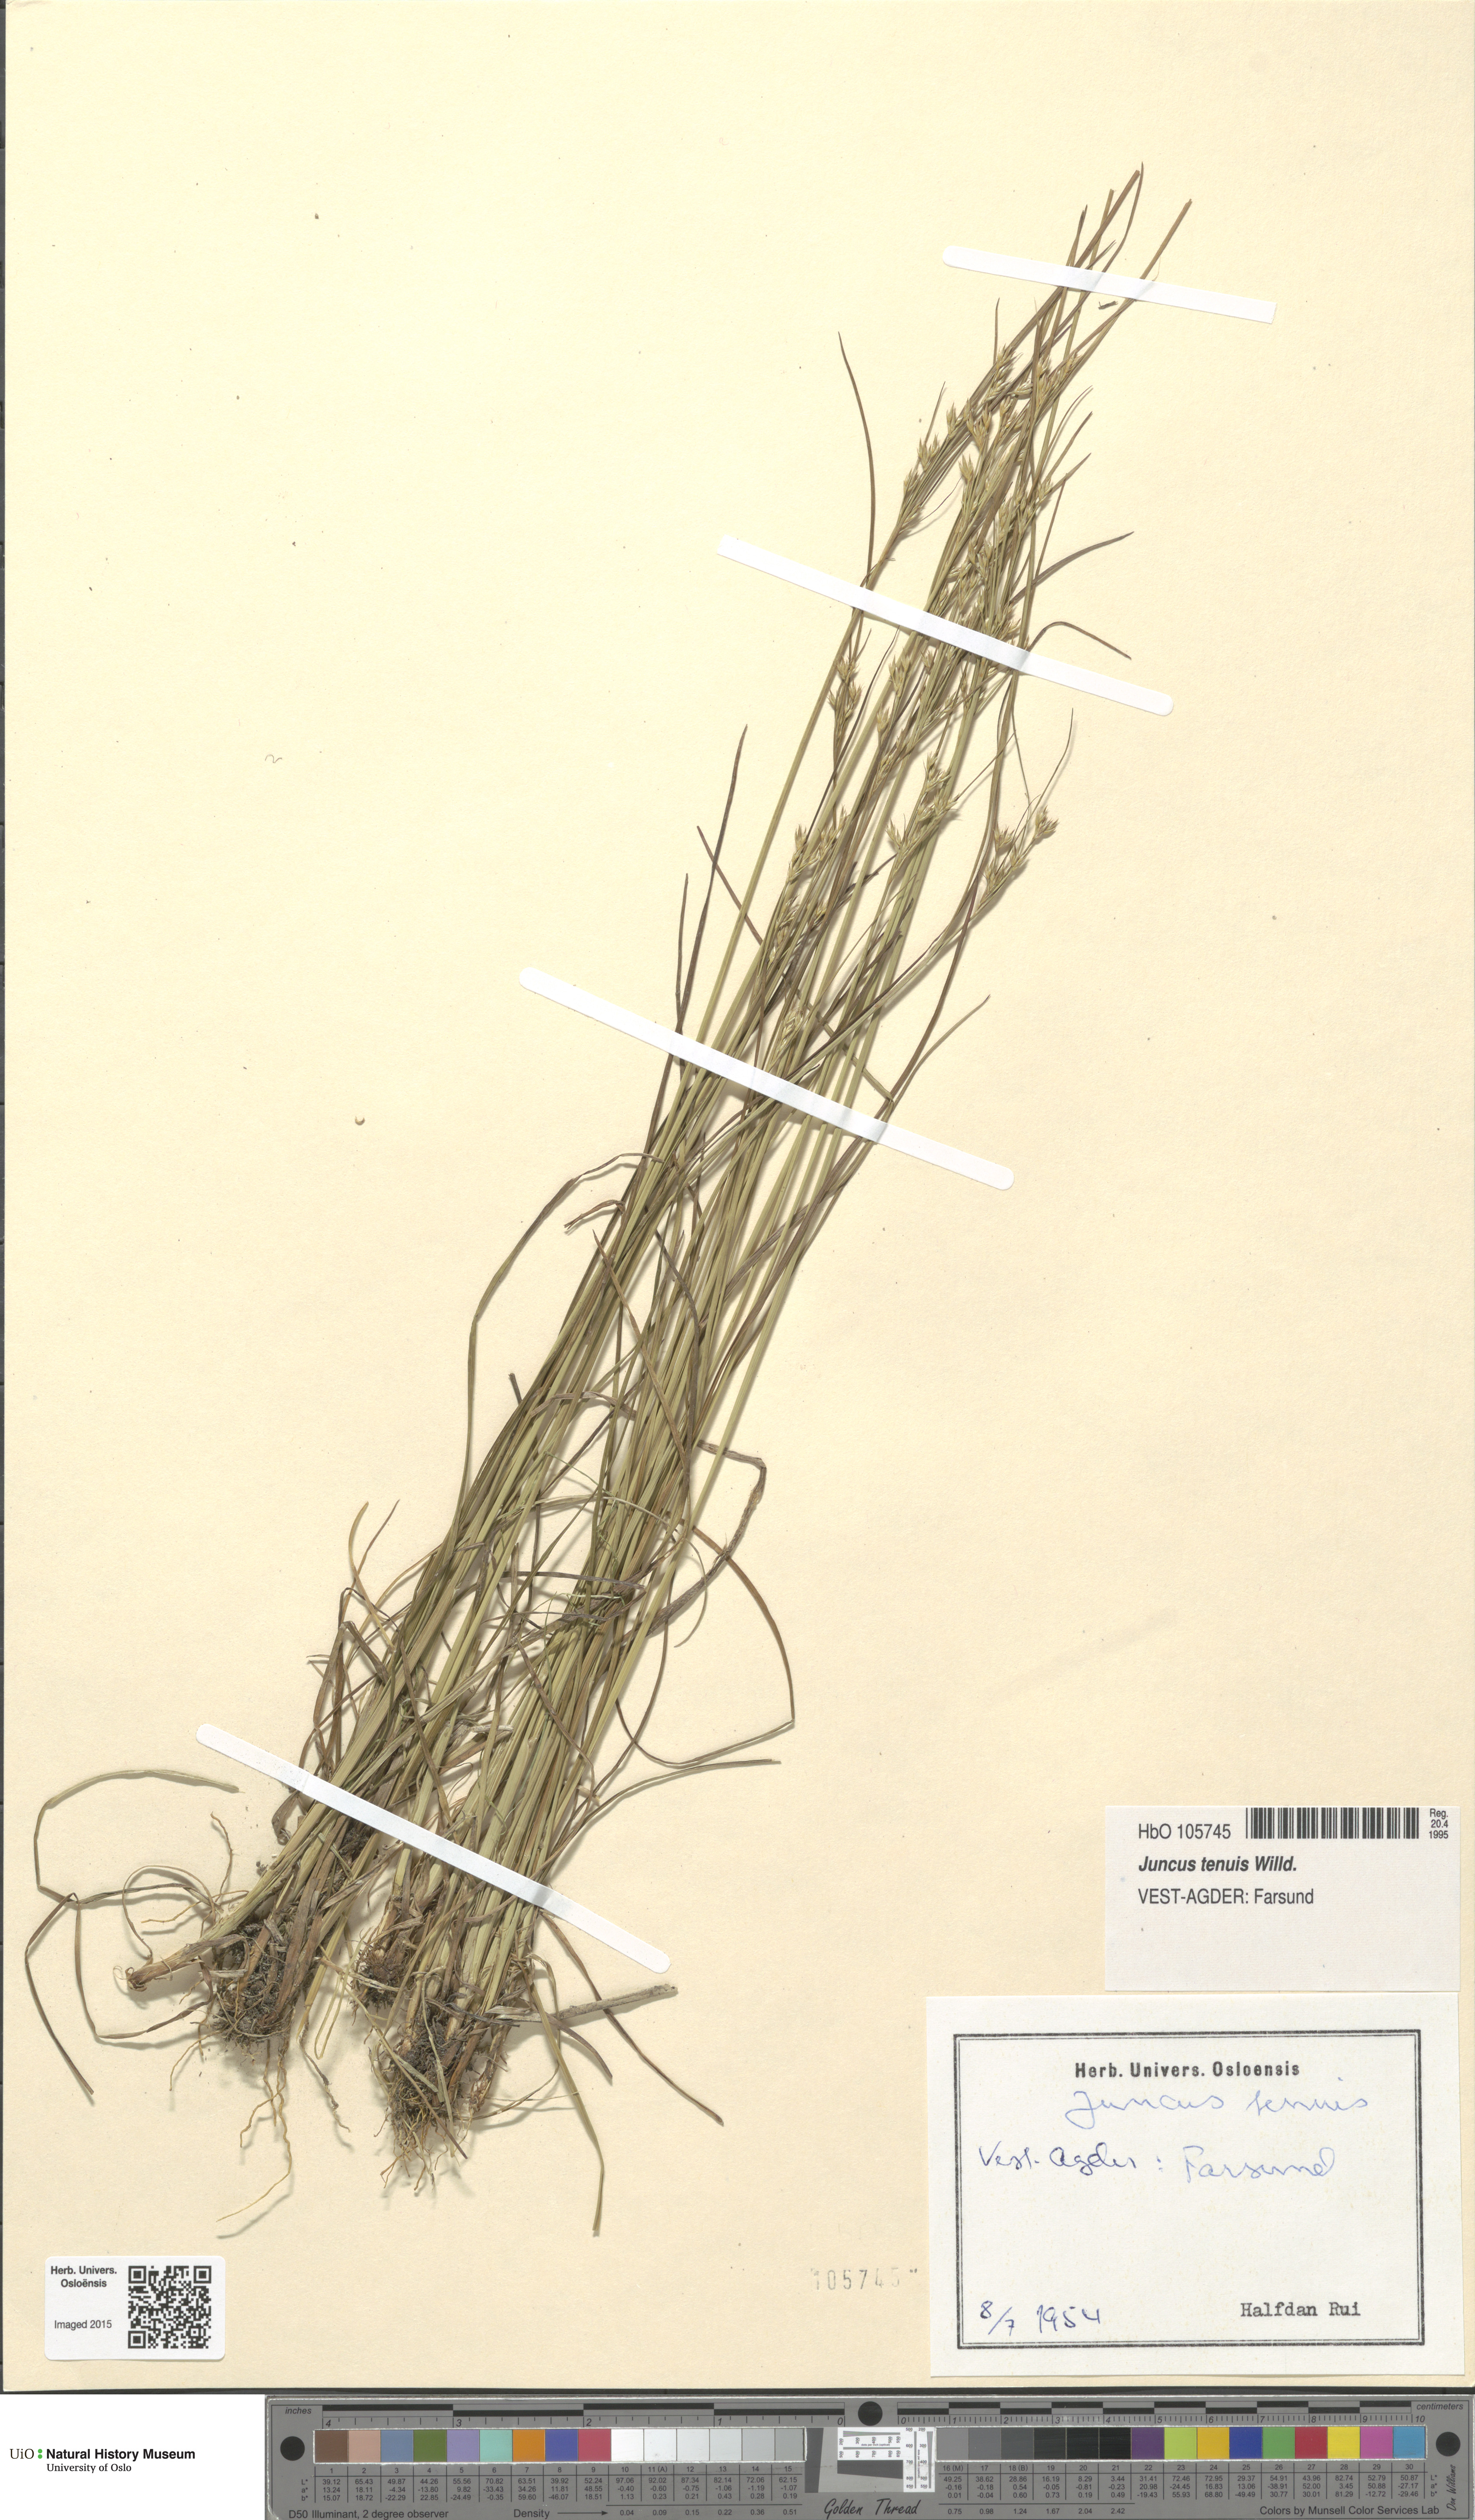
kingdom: Plantae
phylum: Tracheophyta
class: Liliopsida
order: Poales
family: Juncaceae
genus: Juncus
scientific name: Juncus tenuis
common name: Slender rush
